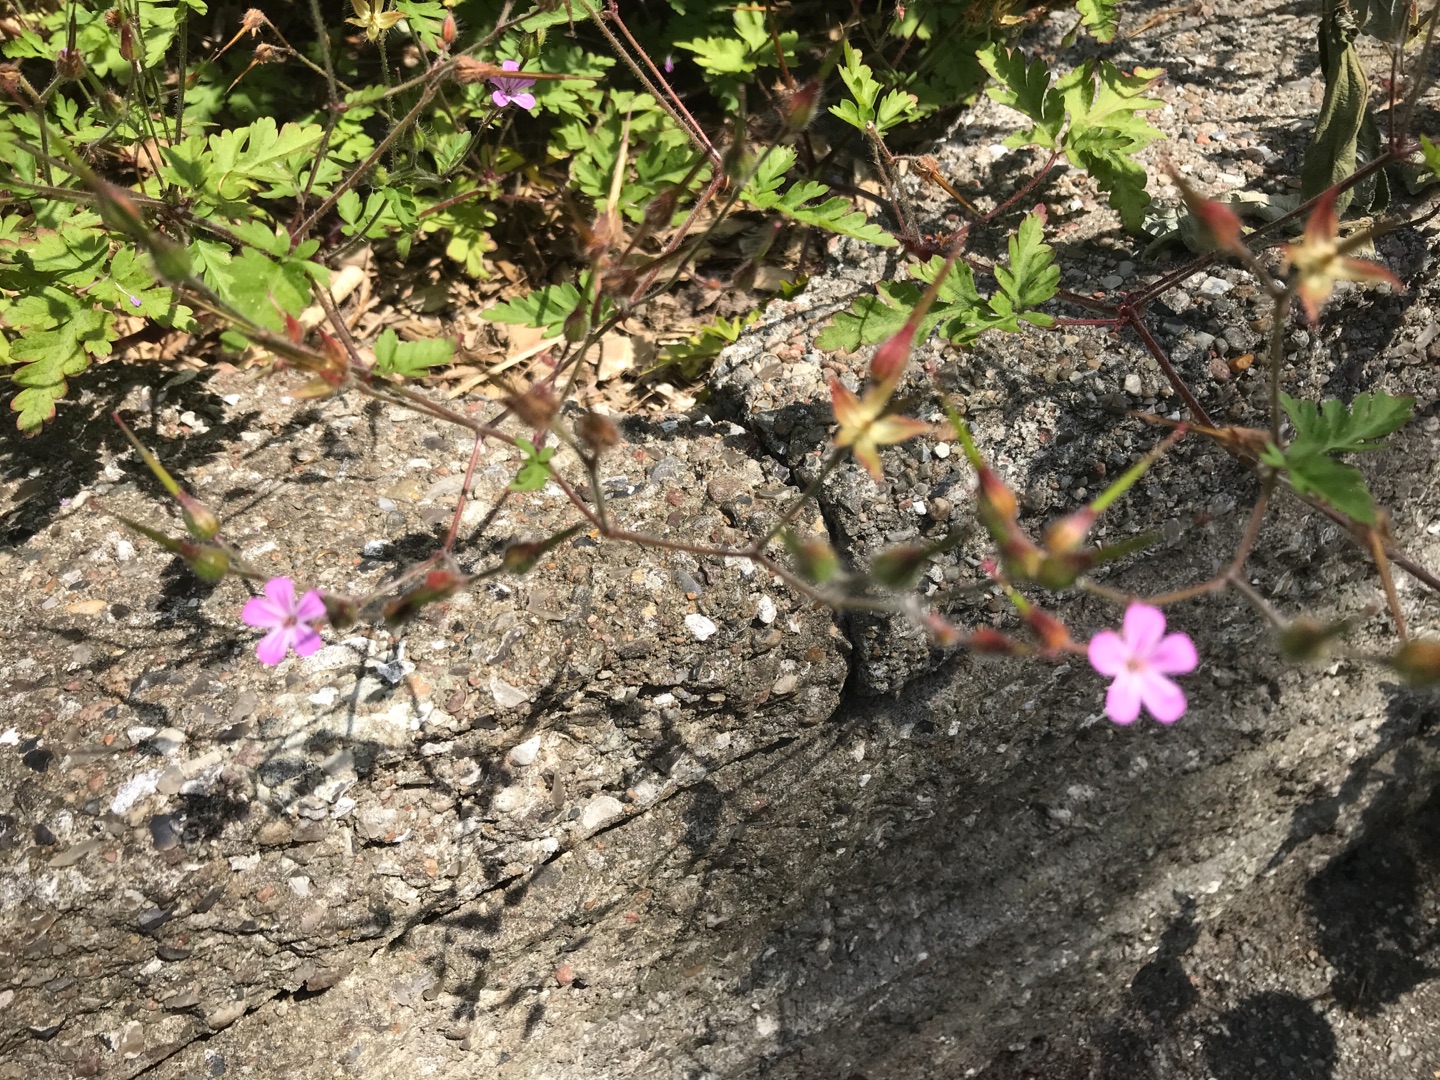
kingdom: Plantae
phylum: Tracheophyta
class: Magnoliopsida
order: Geraniales
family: Geraniaceae
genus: Geranium
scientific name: Geranium robertianum
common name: Stinkende storkenæb
